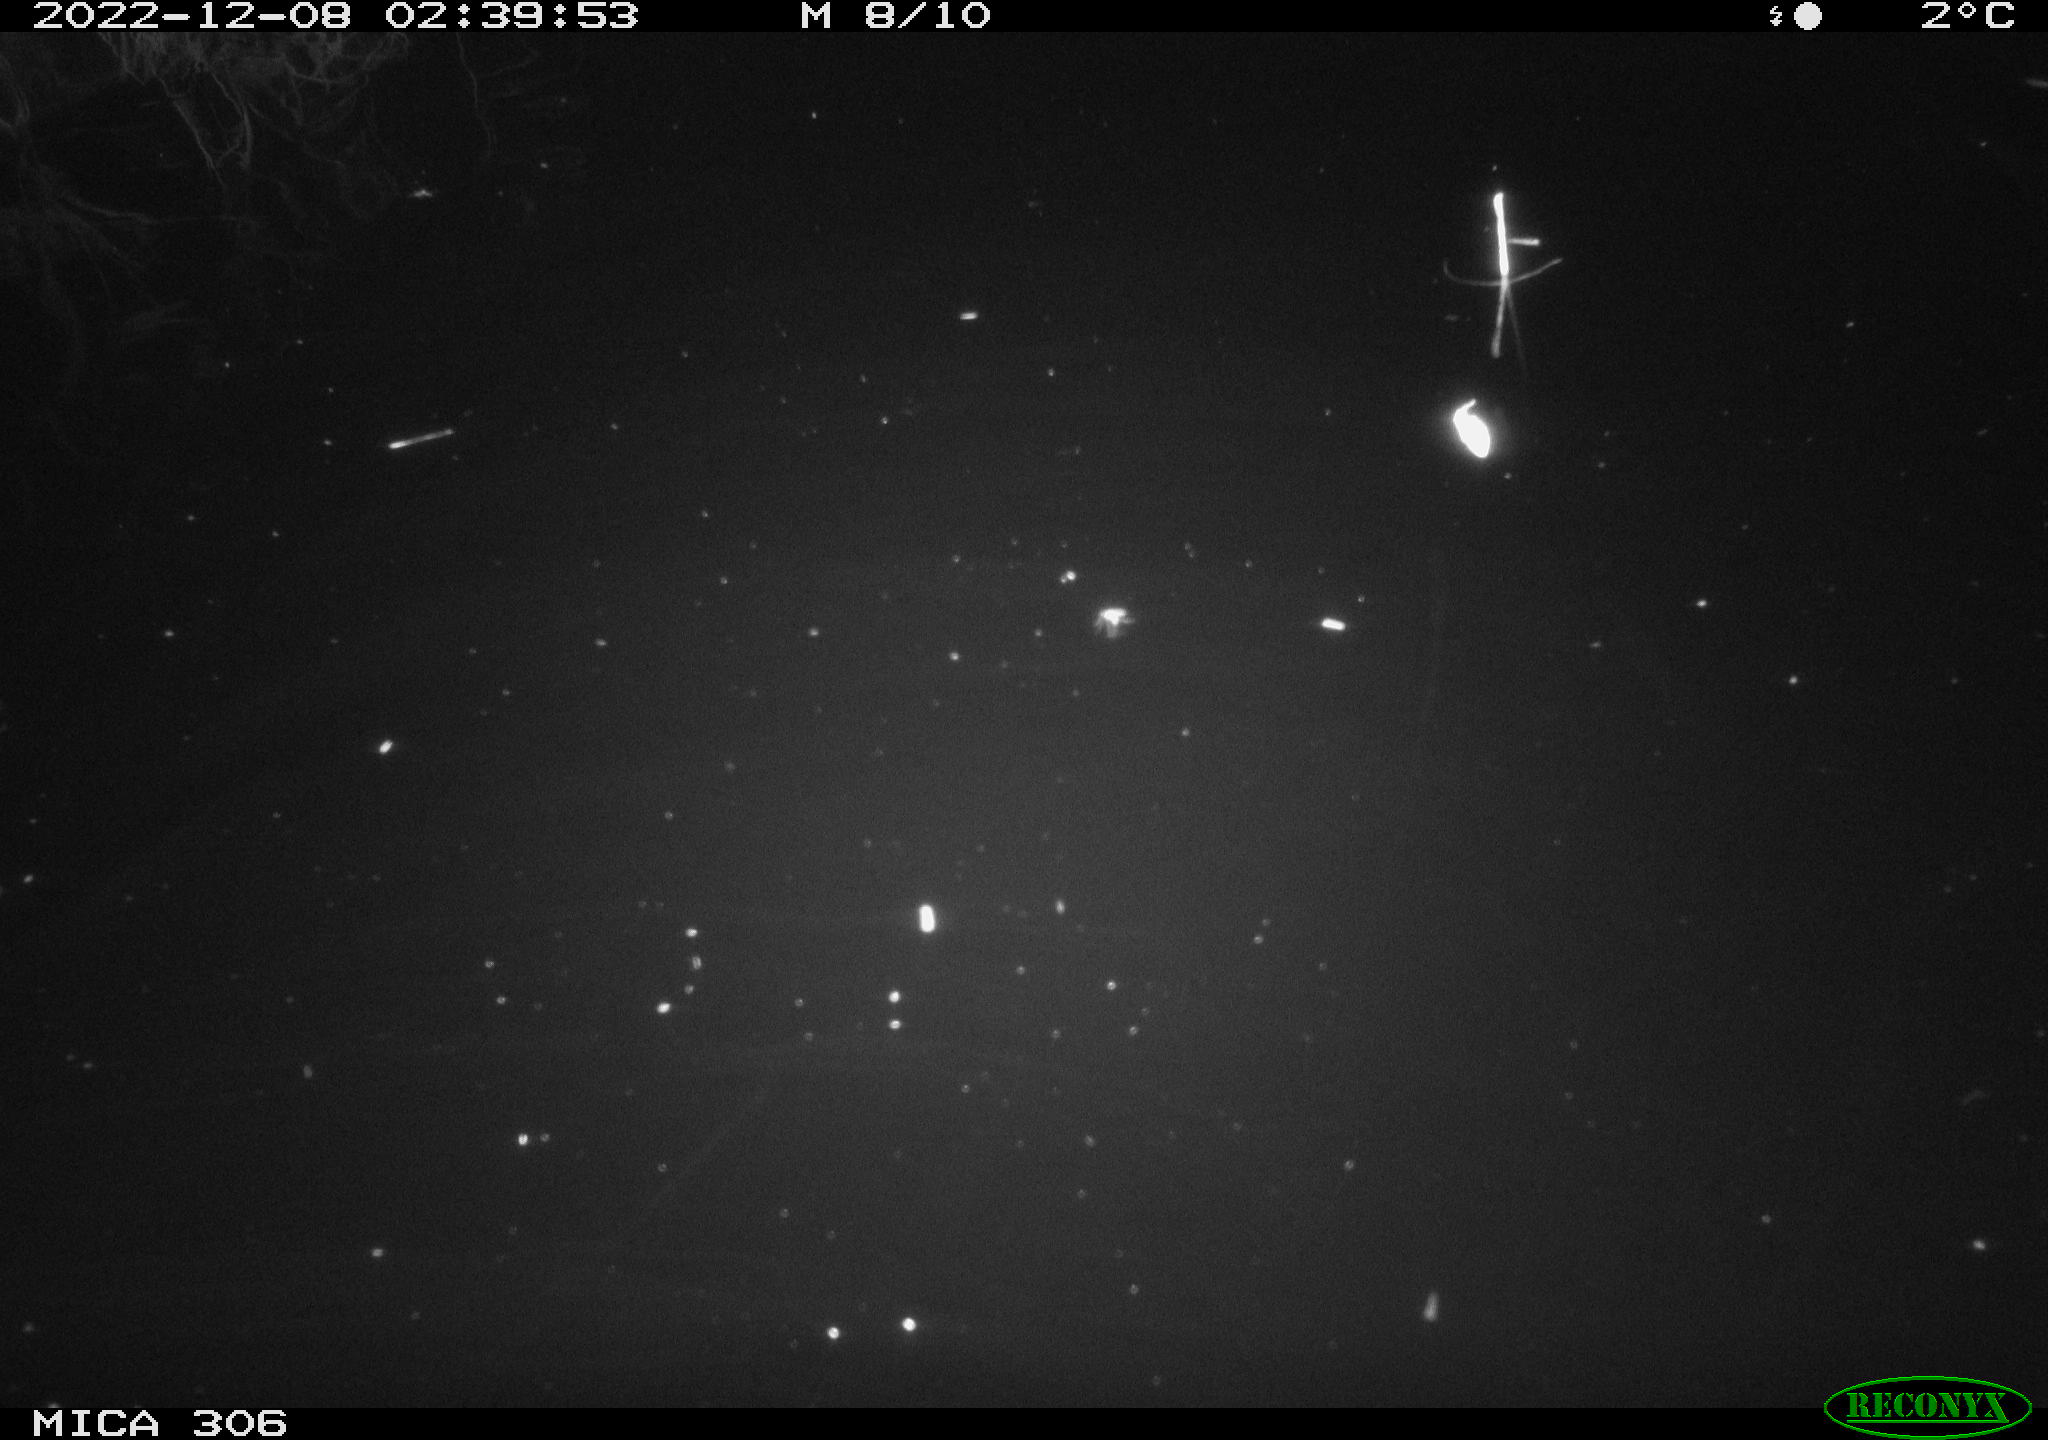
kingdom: Animalia
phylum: Chordata
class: Mammalia
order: Rodentia
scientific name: Rodentia
